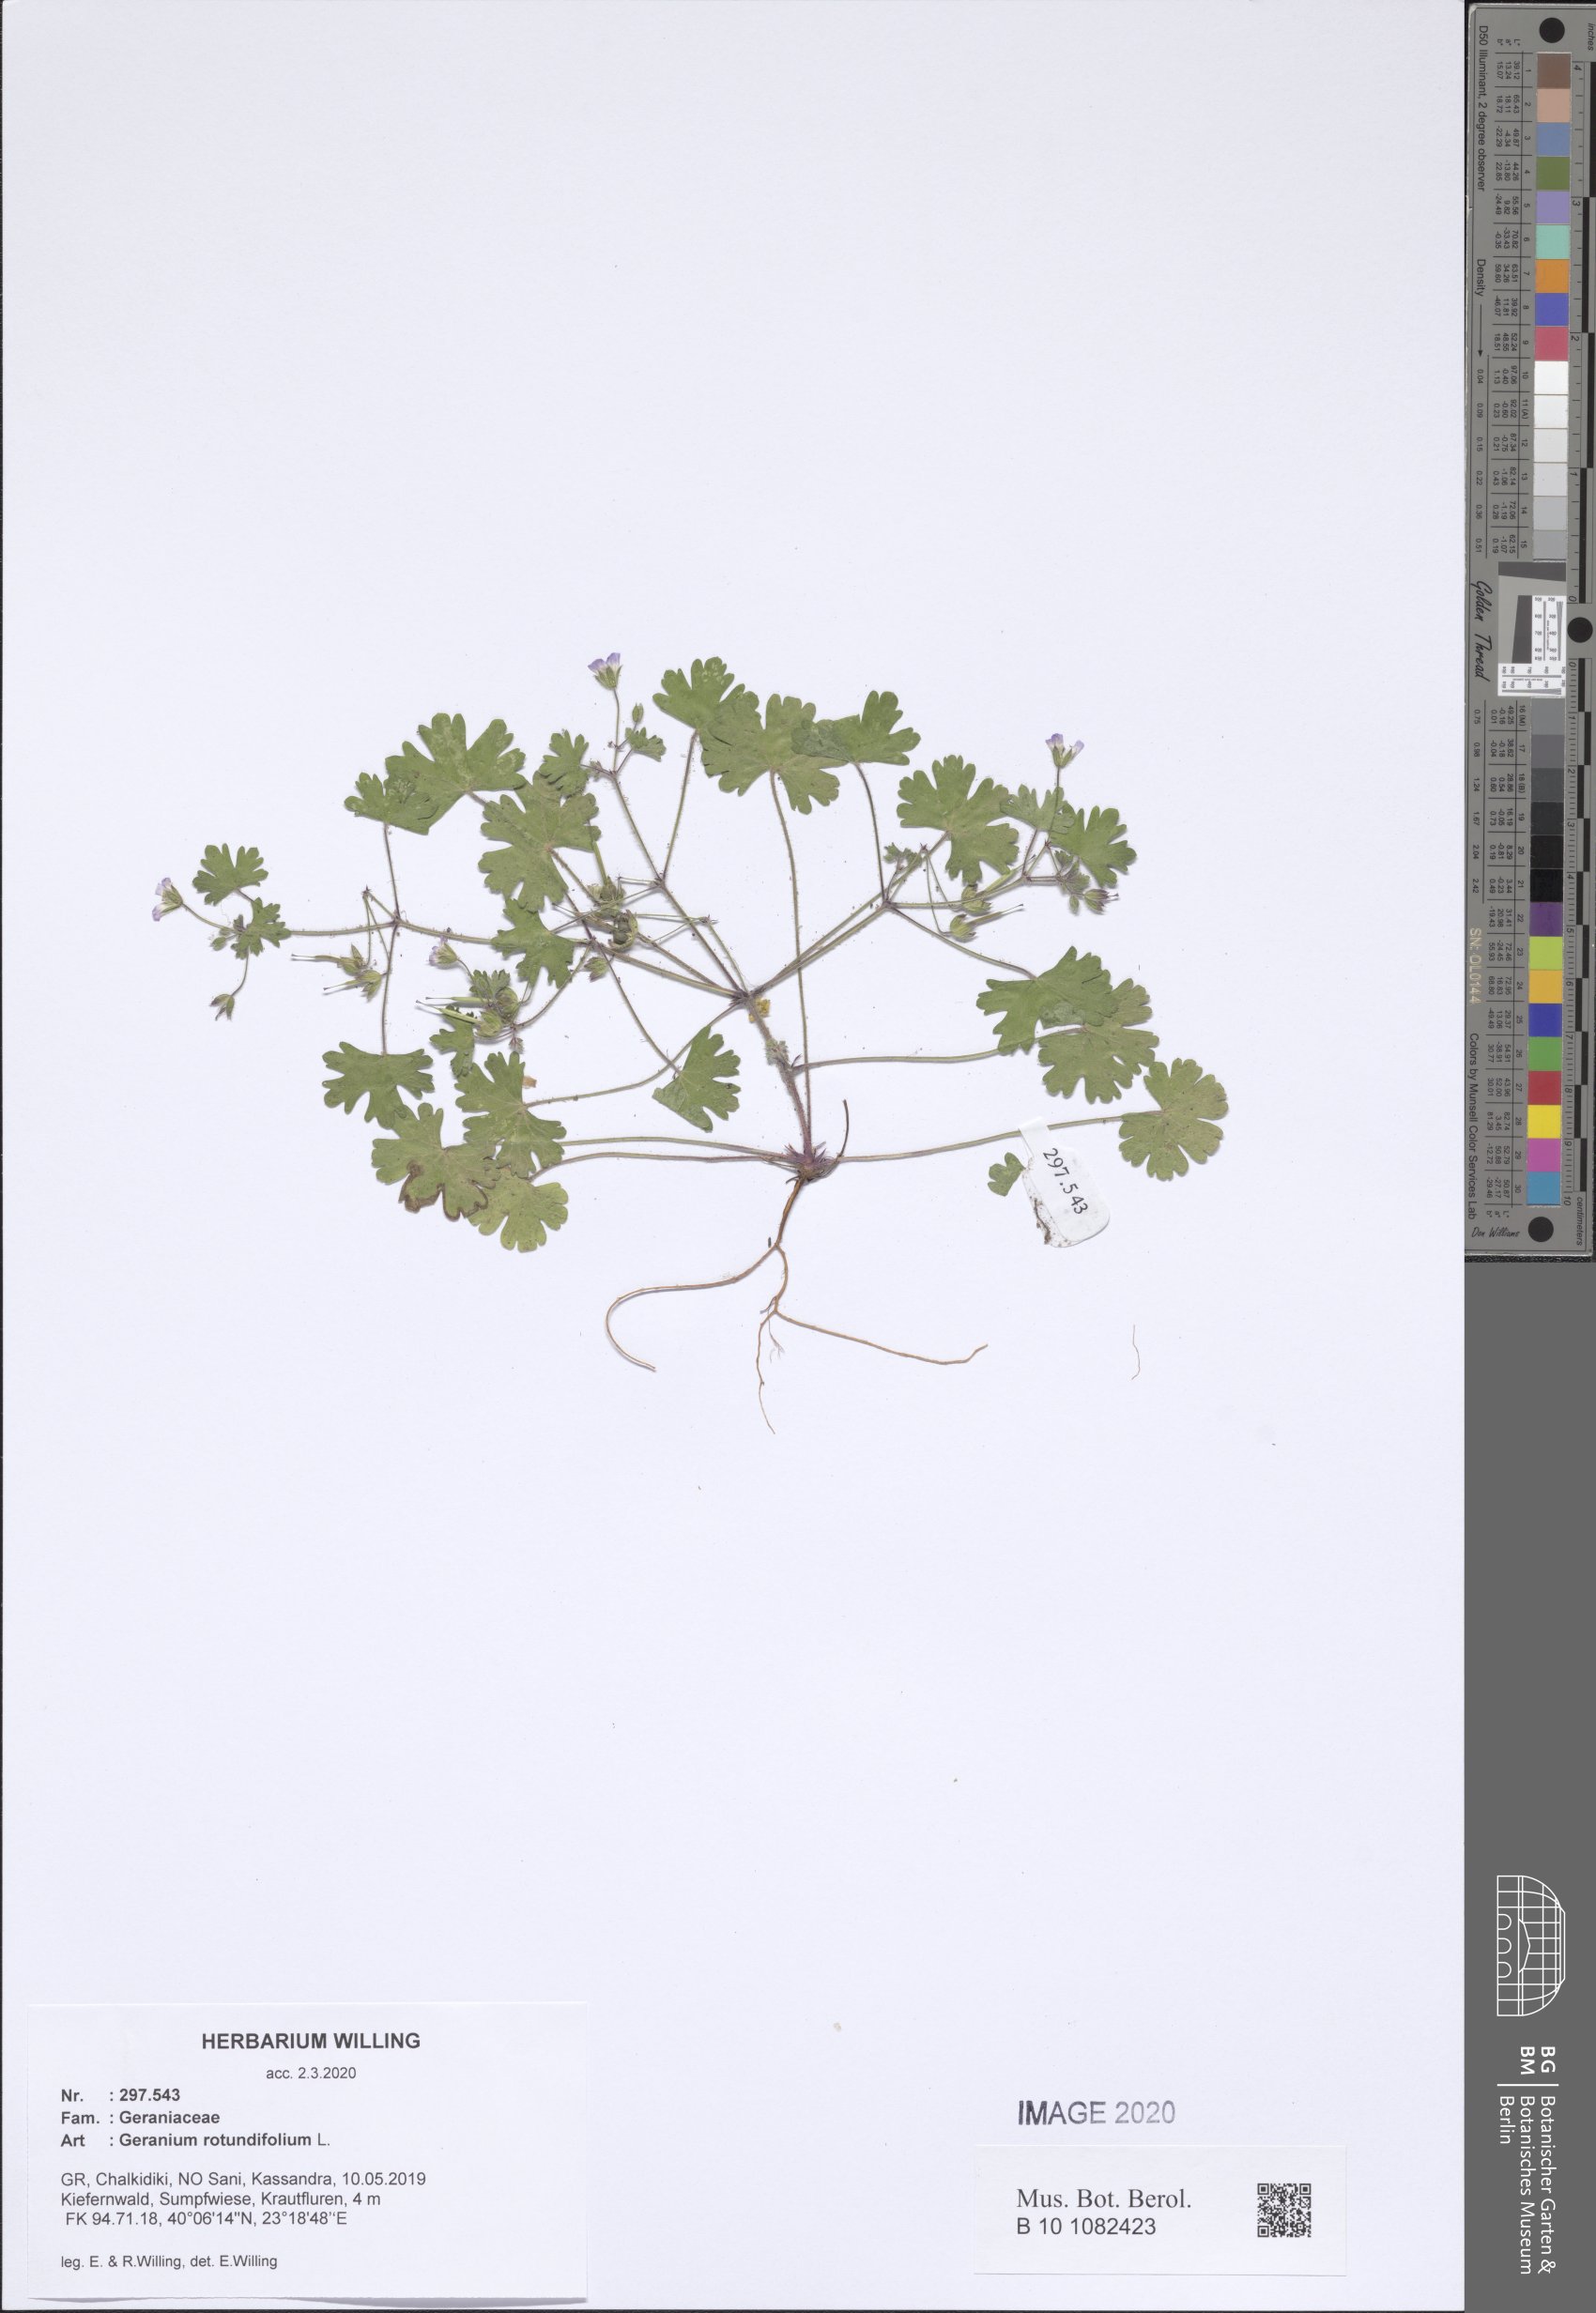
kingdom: Plantae
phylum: Tracheophyta
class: Magnoliopsida
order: Geraniales
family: Geraniaceae
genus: Geranium
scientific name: Geranium rotundifolium
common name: Round-leaved crane's-bill
